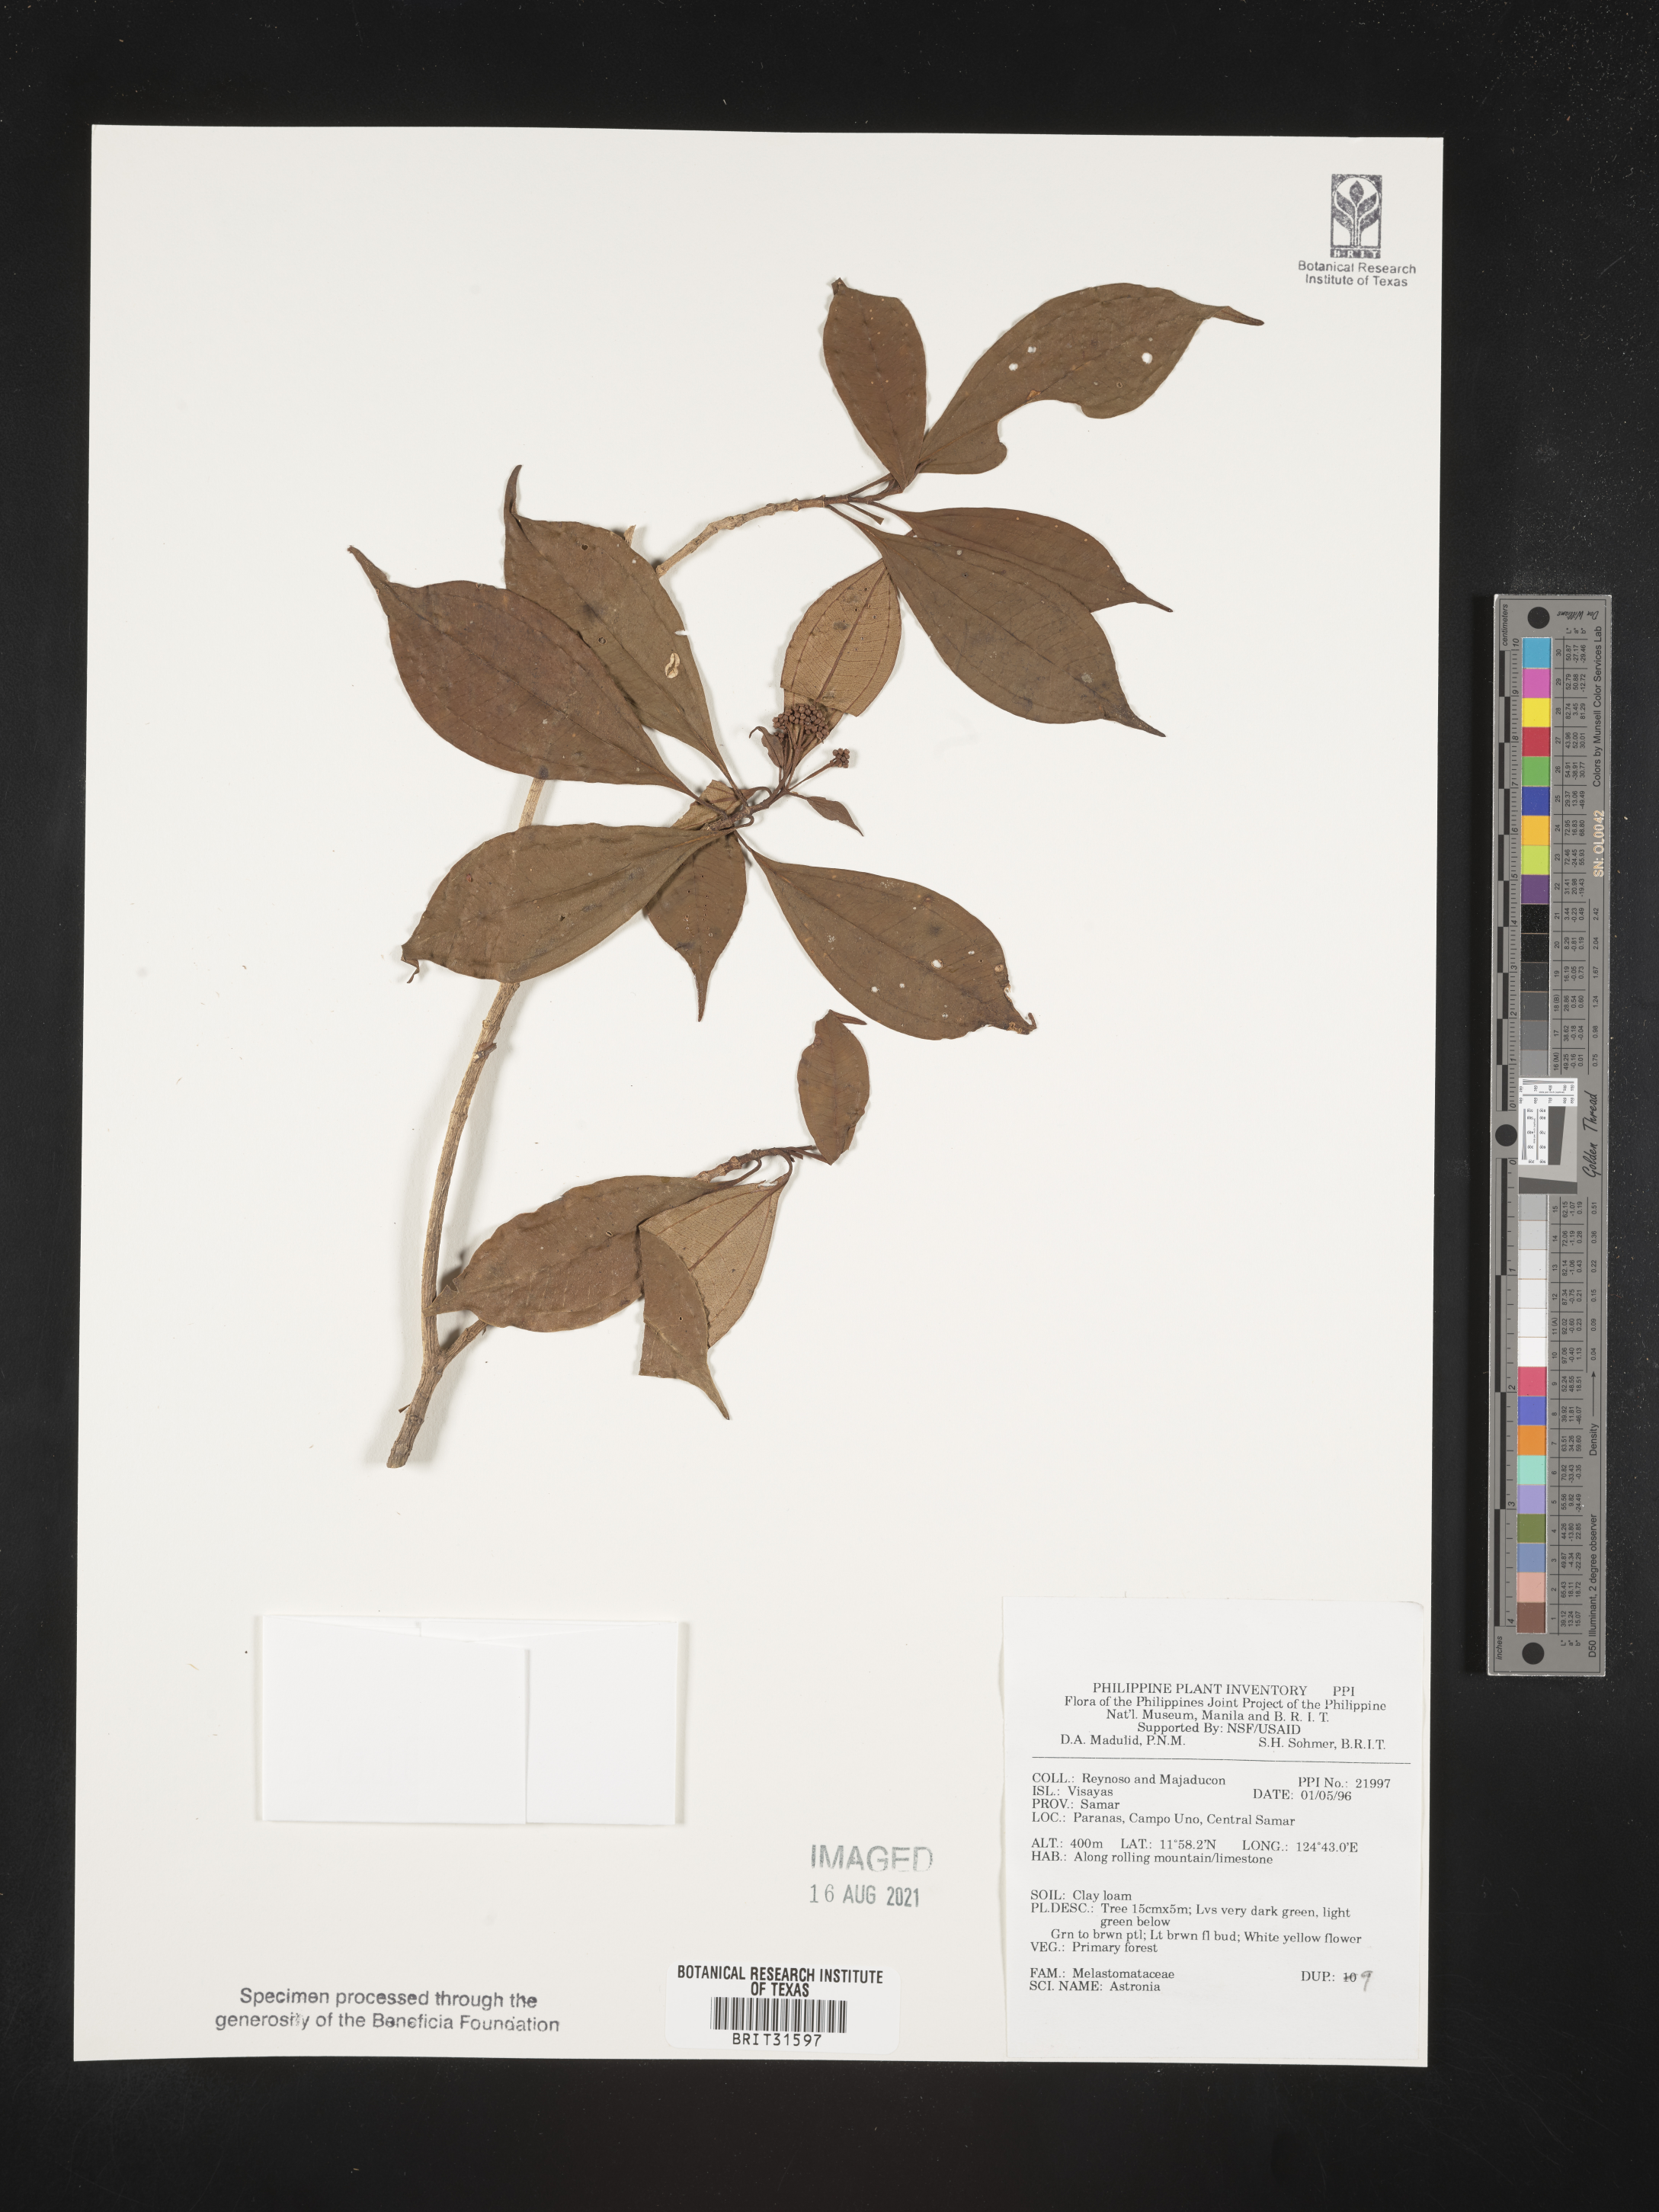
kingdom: Plantae
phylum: Tracheophyta
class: Magnoliopsida
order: Myrtales
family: Melastomataceae
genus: Astronia
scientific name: Astronia
